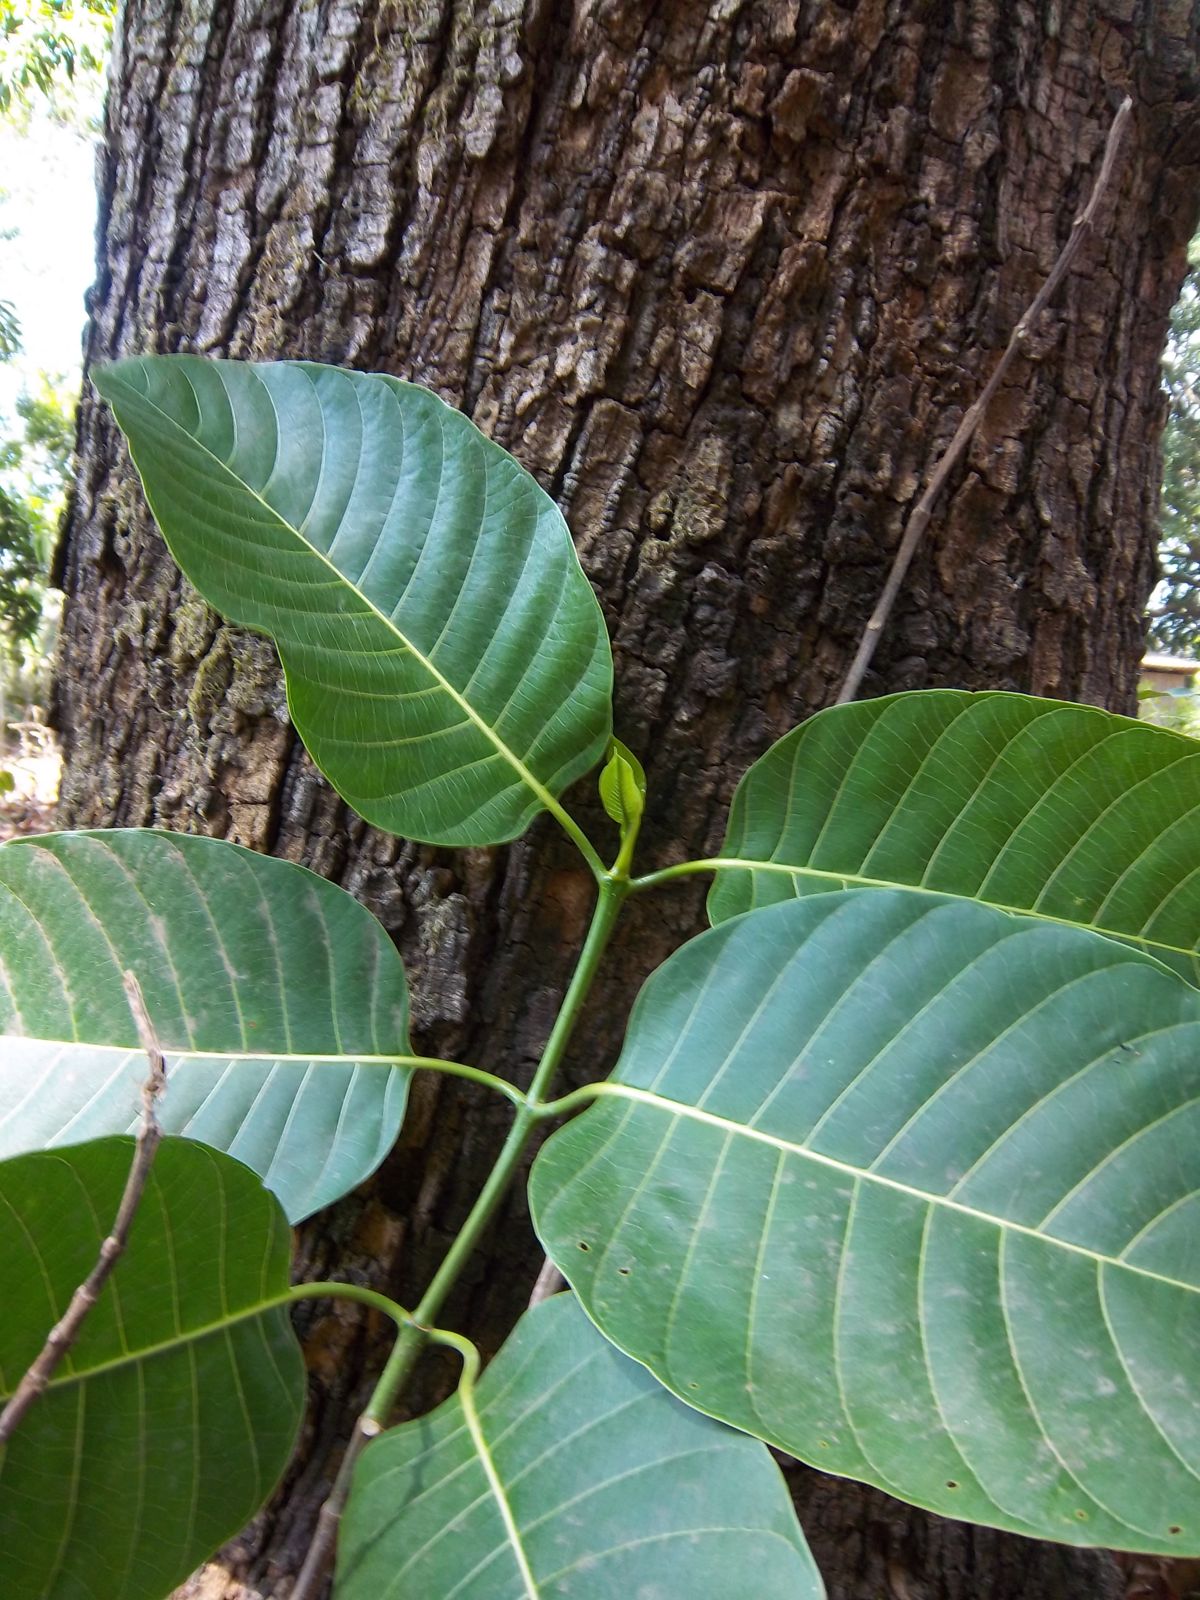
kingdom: Plantae
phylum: Tracheophyta
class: Magnoliopsida
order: Gentianales
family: Rubiaceae
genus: Neolamarckia
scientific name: Neolamarckia cadamba
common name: Leichhardt-pine
